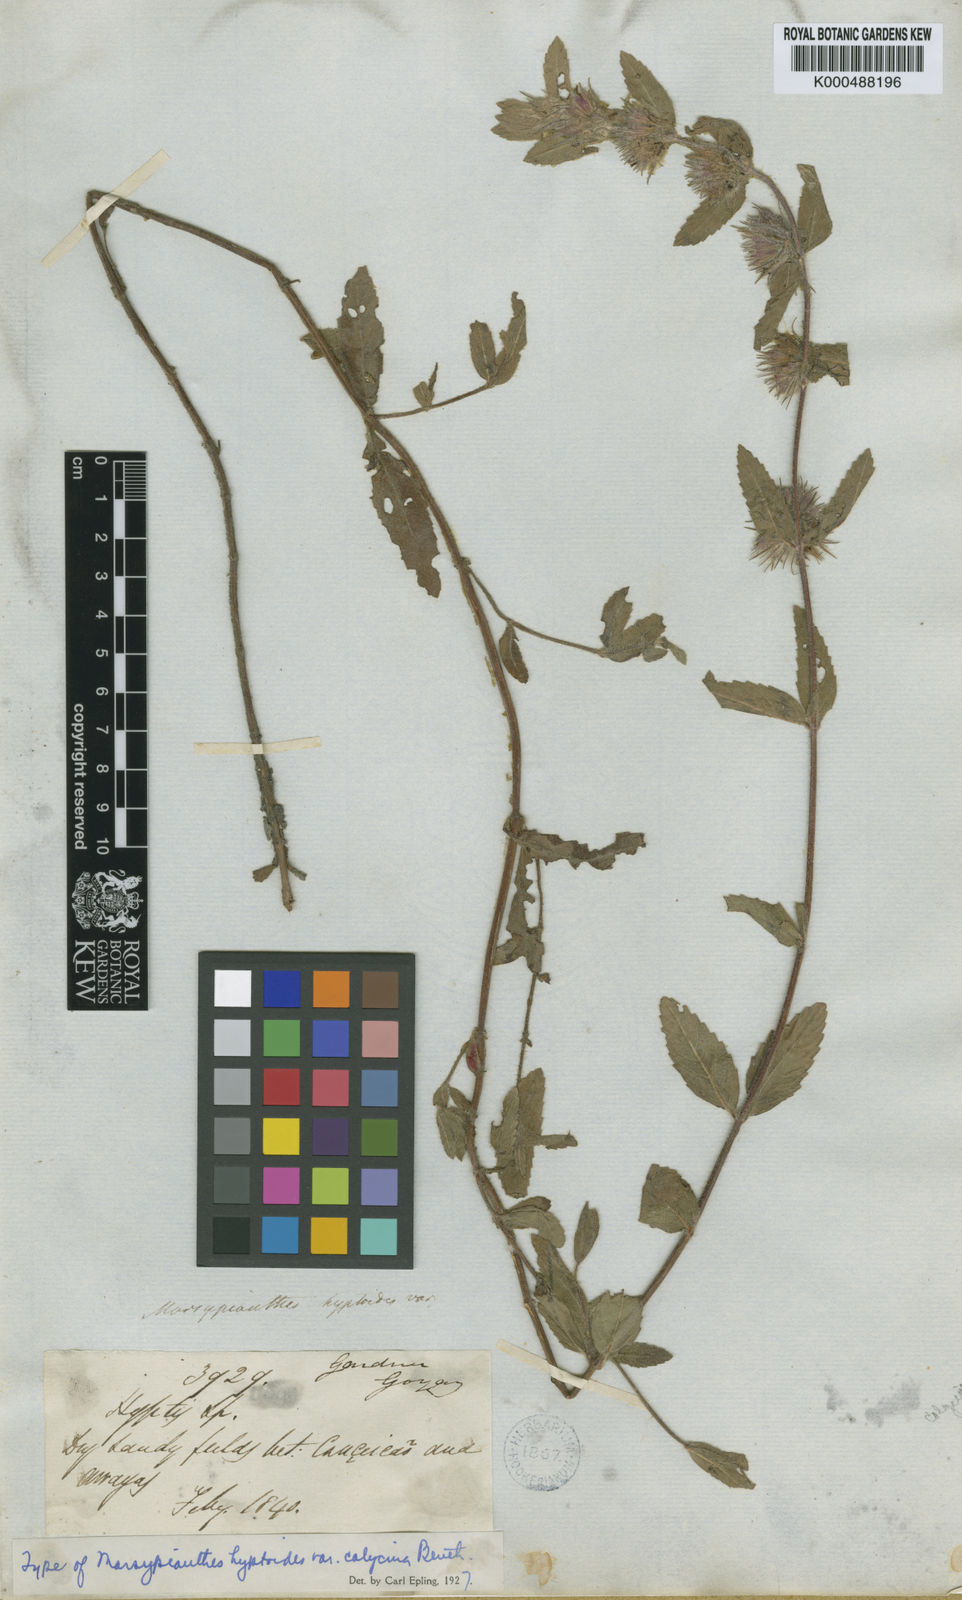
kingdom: Plantae
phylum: Tracheophyta
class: Magnoliopsida
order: Lamiales
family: Lamiaceae
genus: Marsypianthes
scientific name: Marsypianthes burchellii
